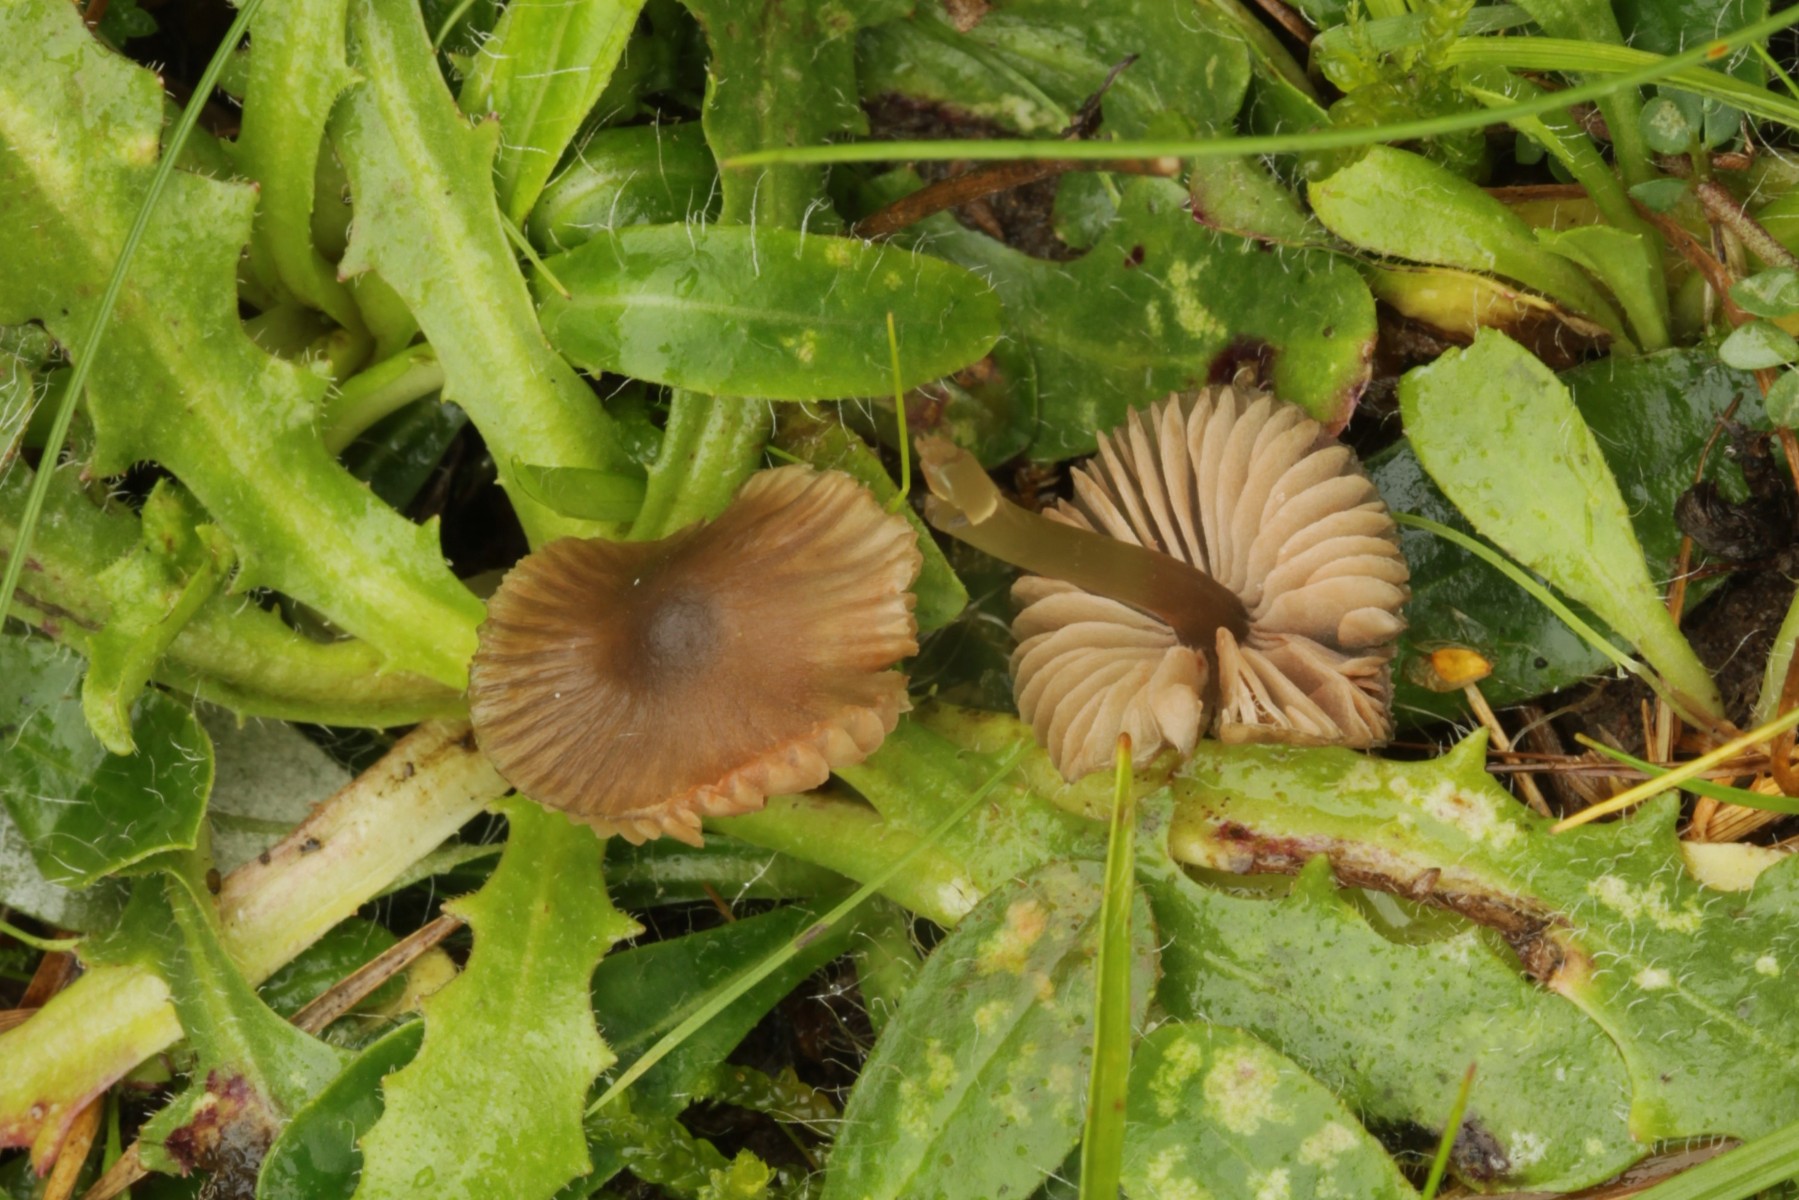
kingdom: Fungi
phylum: Basidiomycota
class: Agaricomycetes
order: Agaricales
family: Entolomataceae
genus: Entoloma
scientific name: Entoloma
